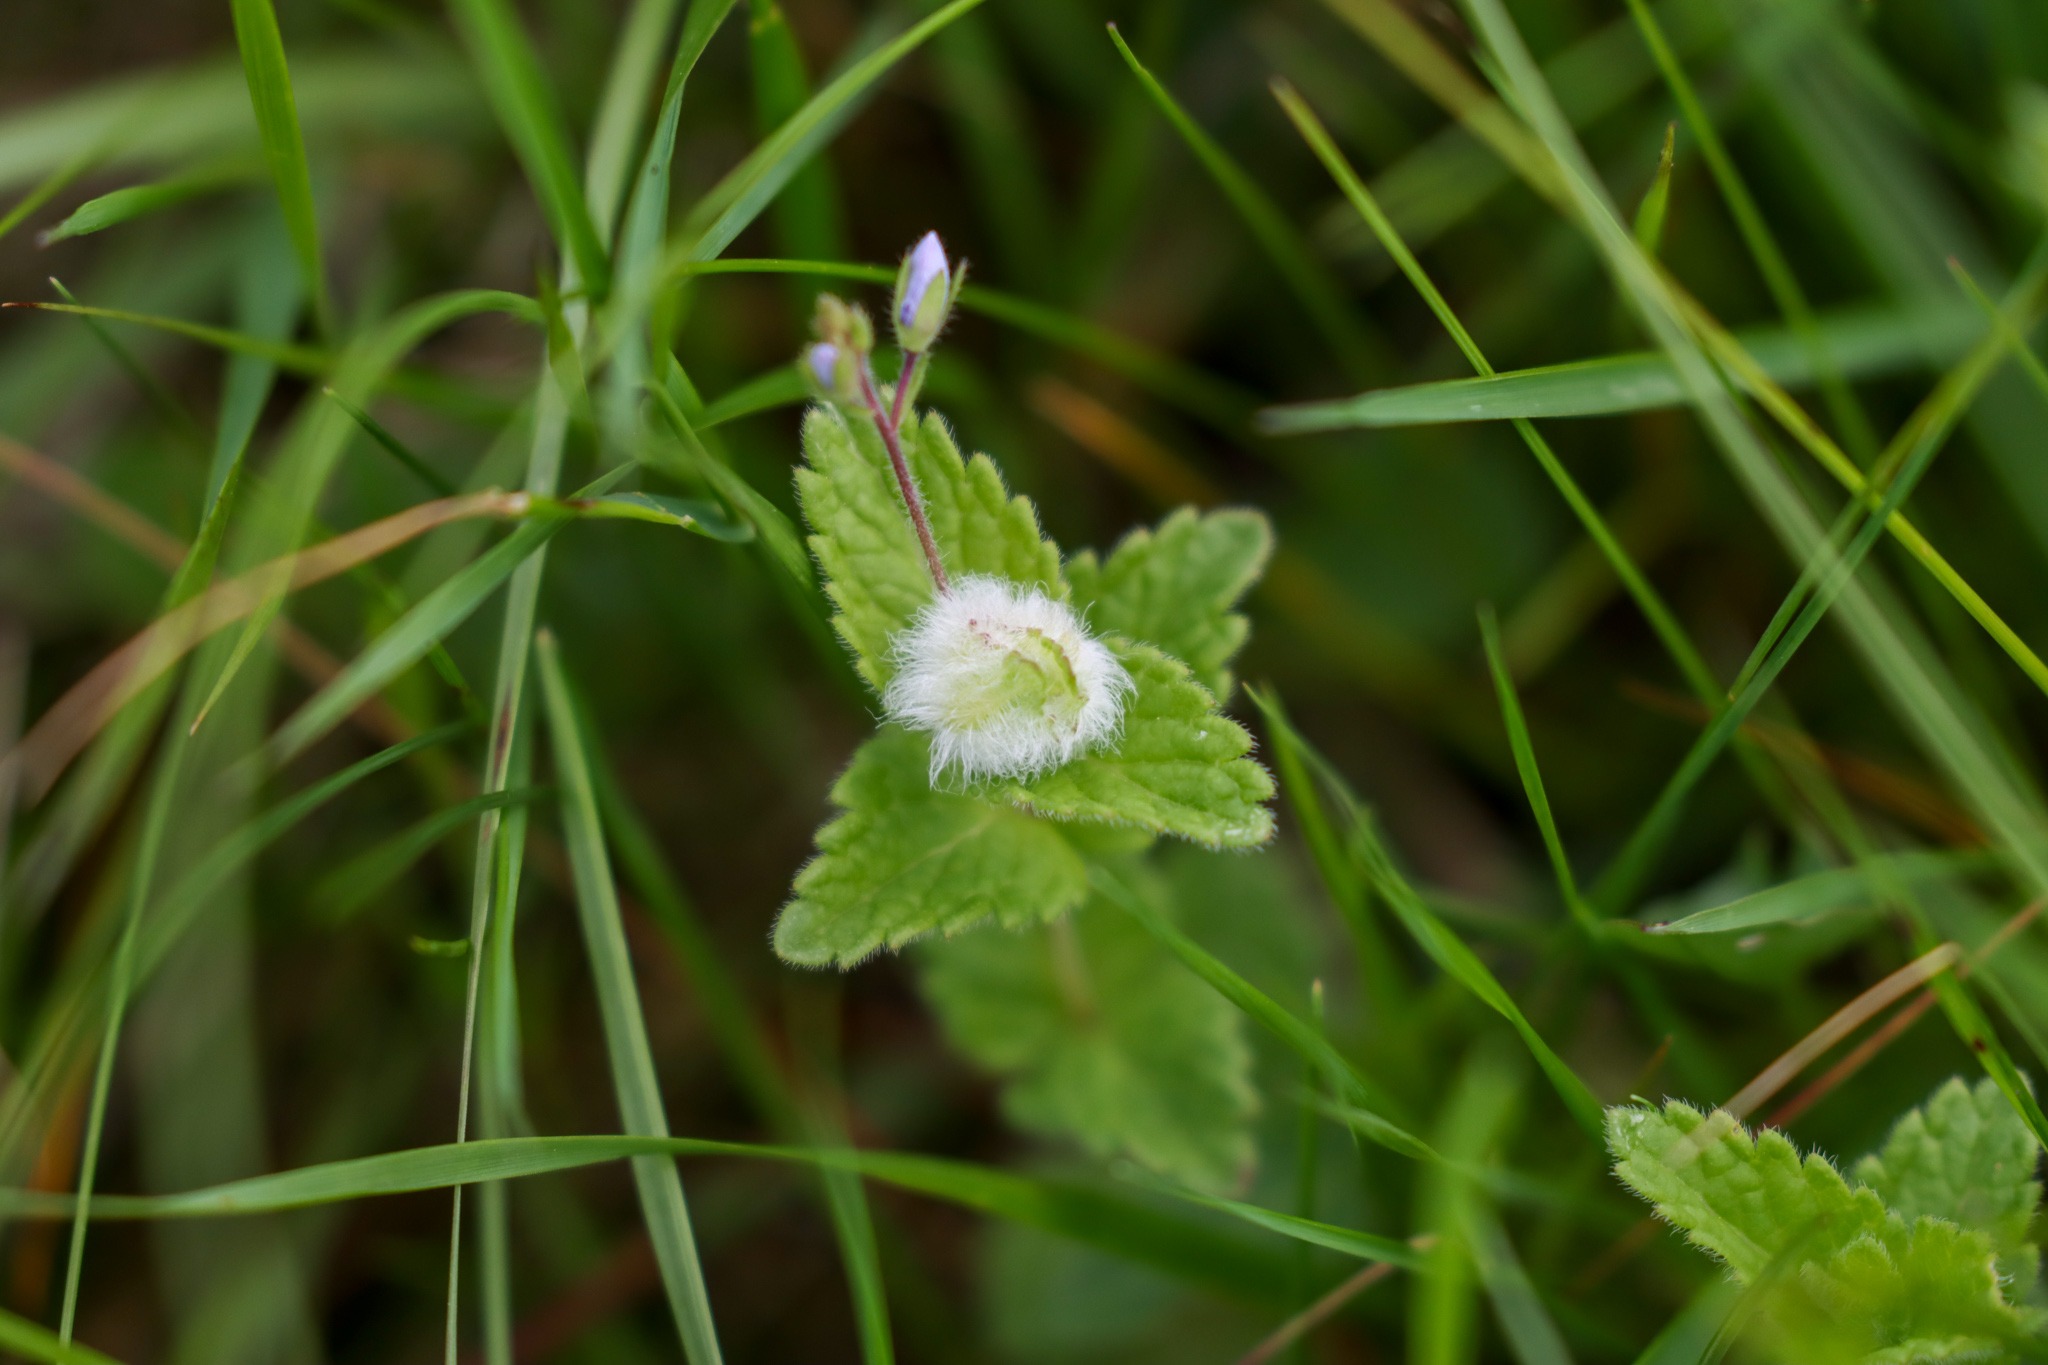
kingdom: Animalia
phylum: Arthropoda
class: Insecta
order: Diptera
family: Cecidomyiidae
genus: Jaapiella
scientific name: Jaapiella veronicae
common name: Ærenprisgalmyg
